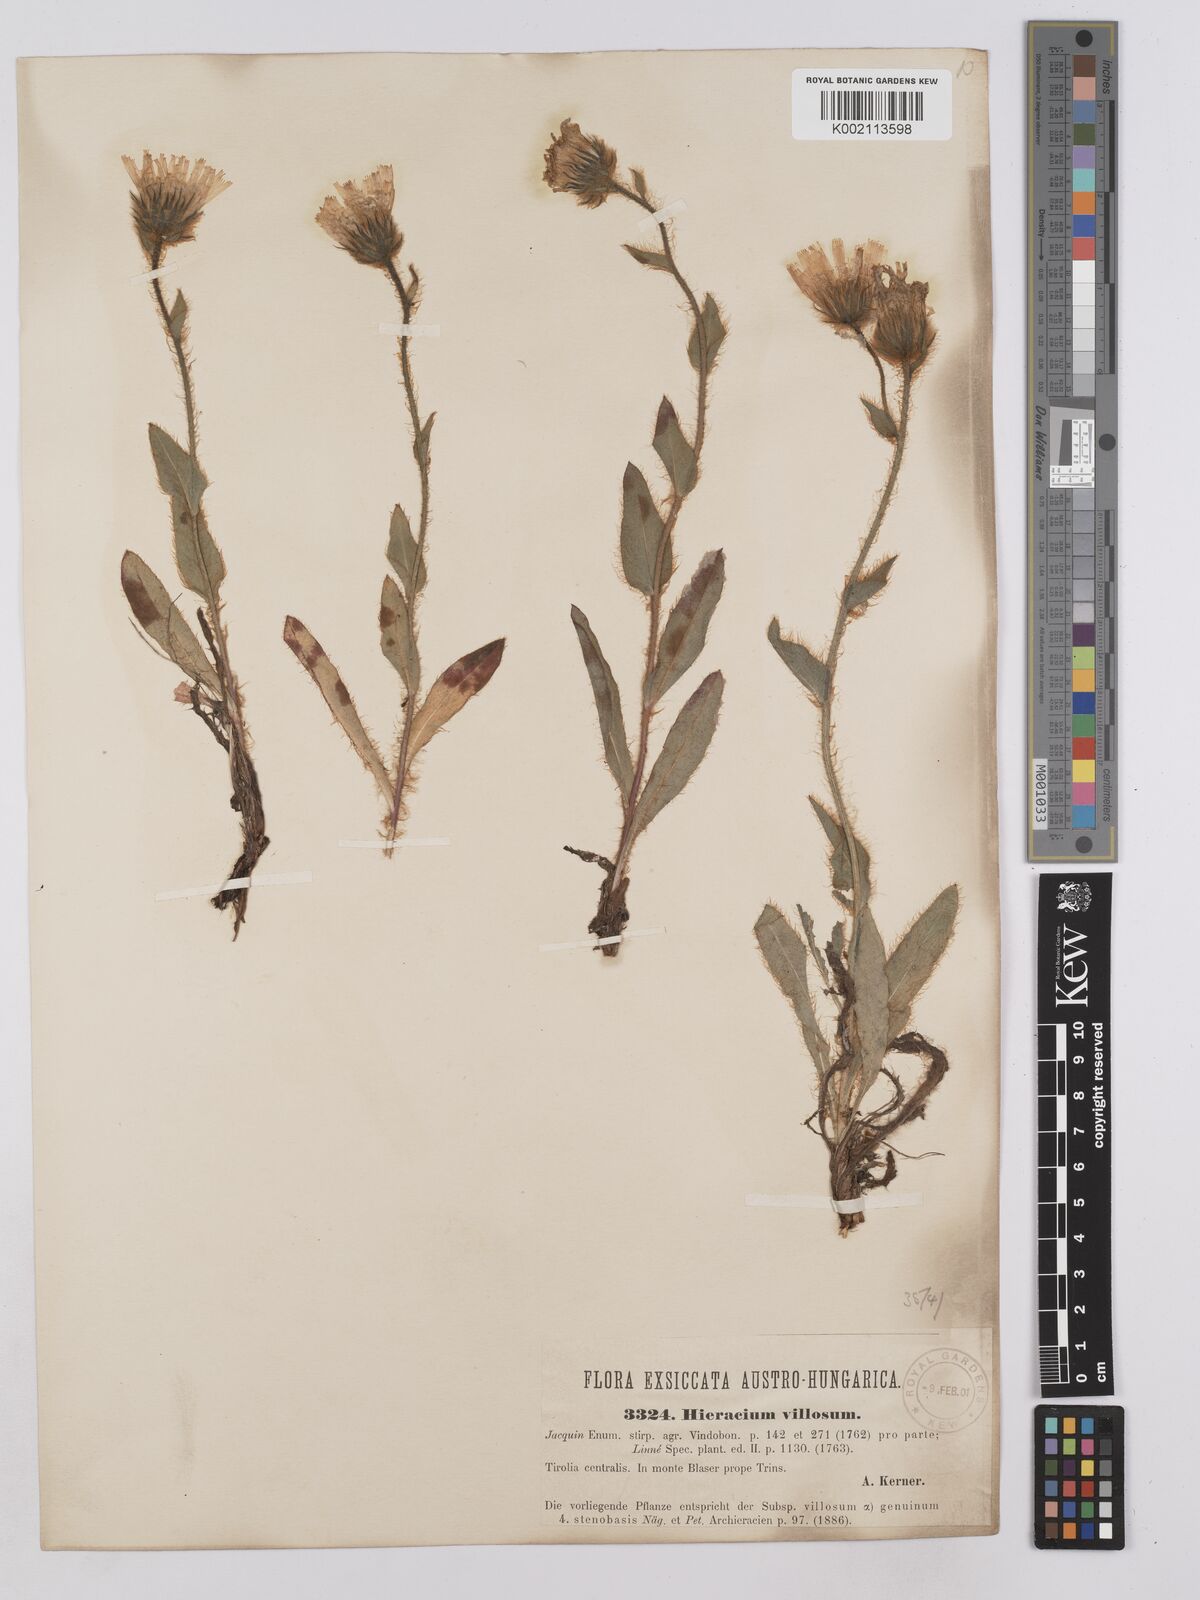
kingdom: Plantae
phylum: Tracheophyta
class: Magnoliopsida
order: Asterales
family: Asteraceae
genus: Hieracium
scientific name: Hieracium villosum
